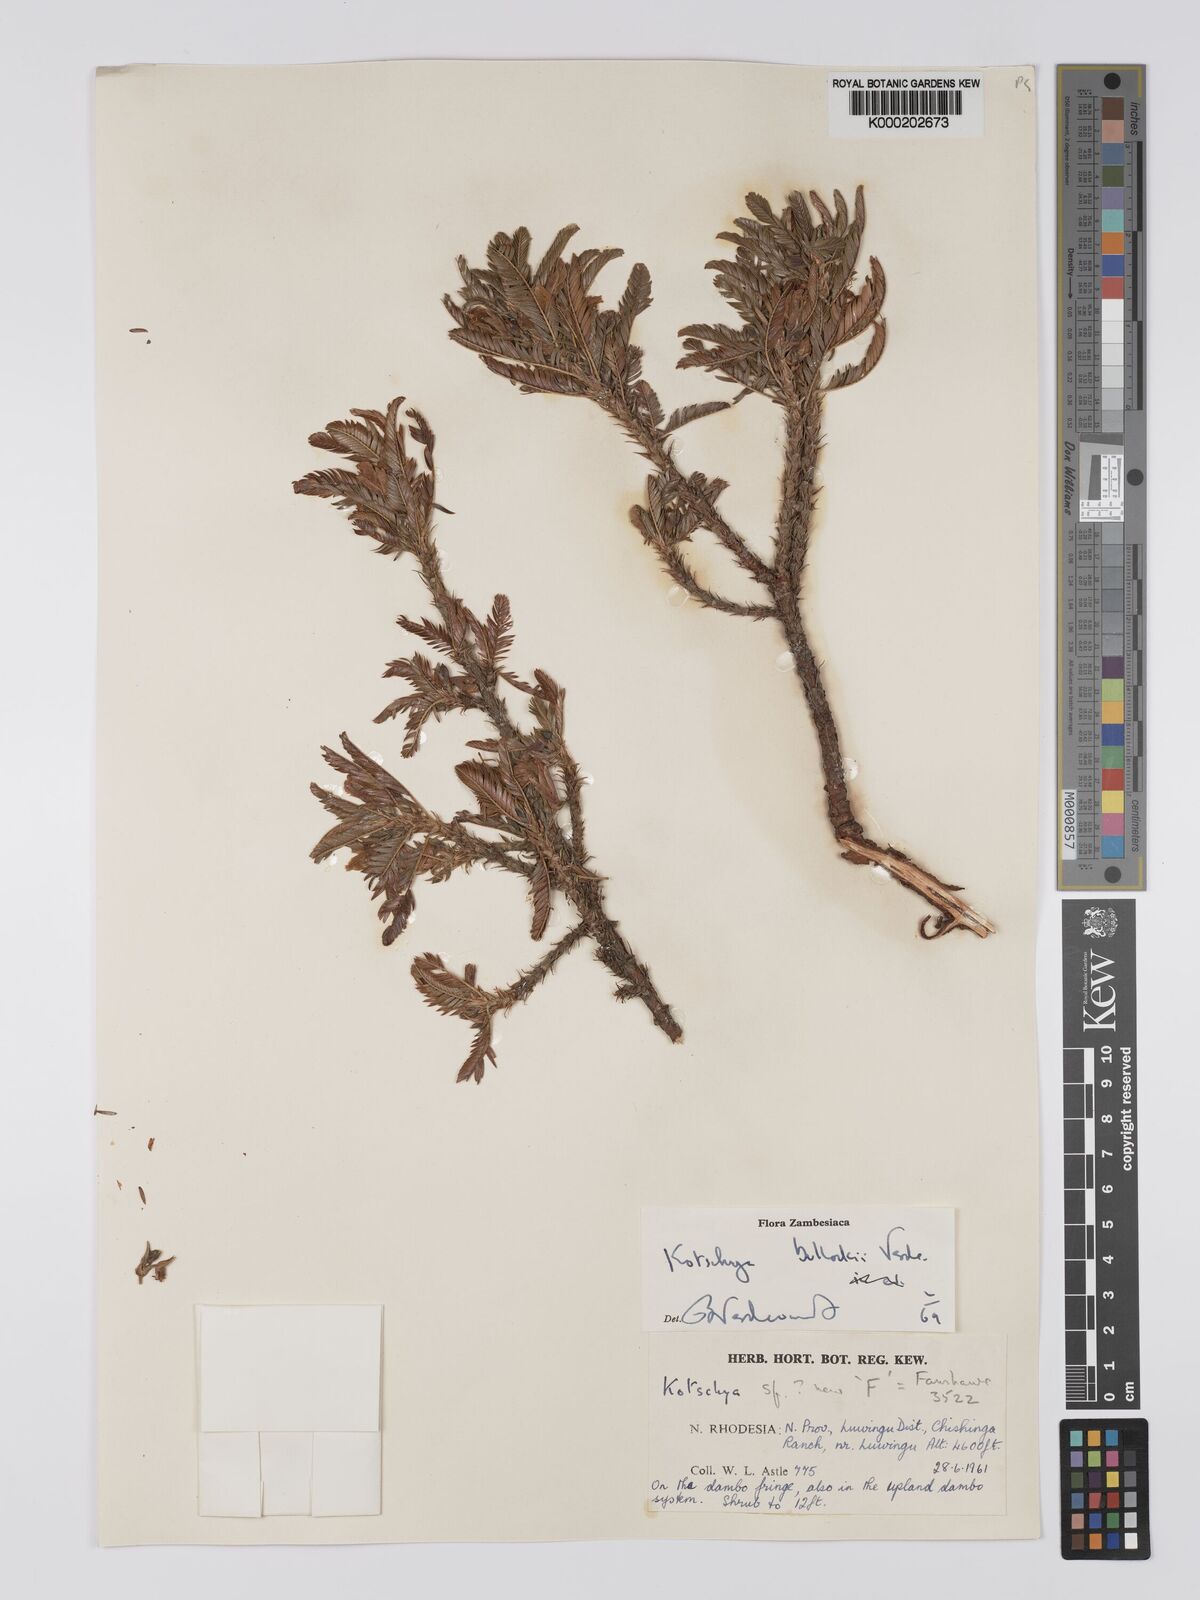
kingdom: Plantae
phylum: Tracheophyta
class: Magnoliopsida
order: Fabales
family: Fabaceae
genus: Kotschya
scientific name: Kotschya bullockii
